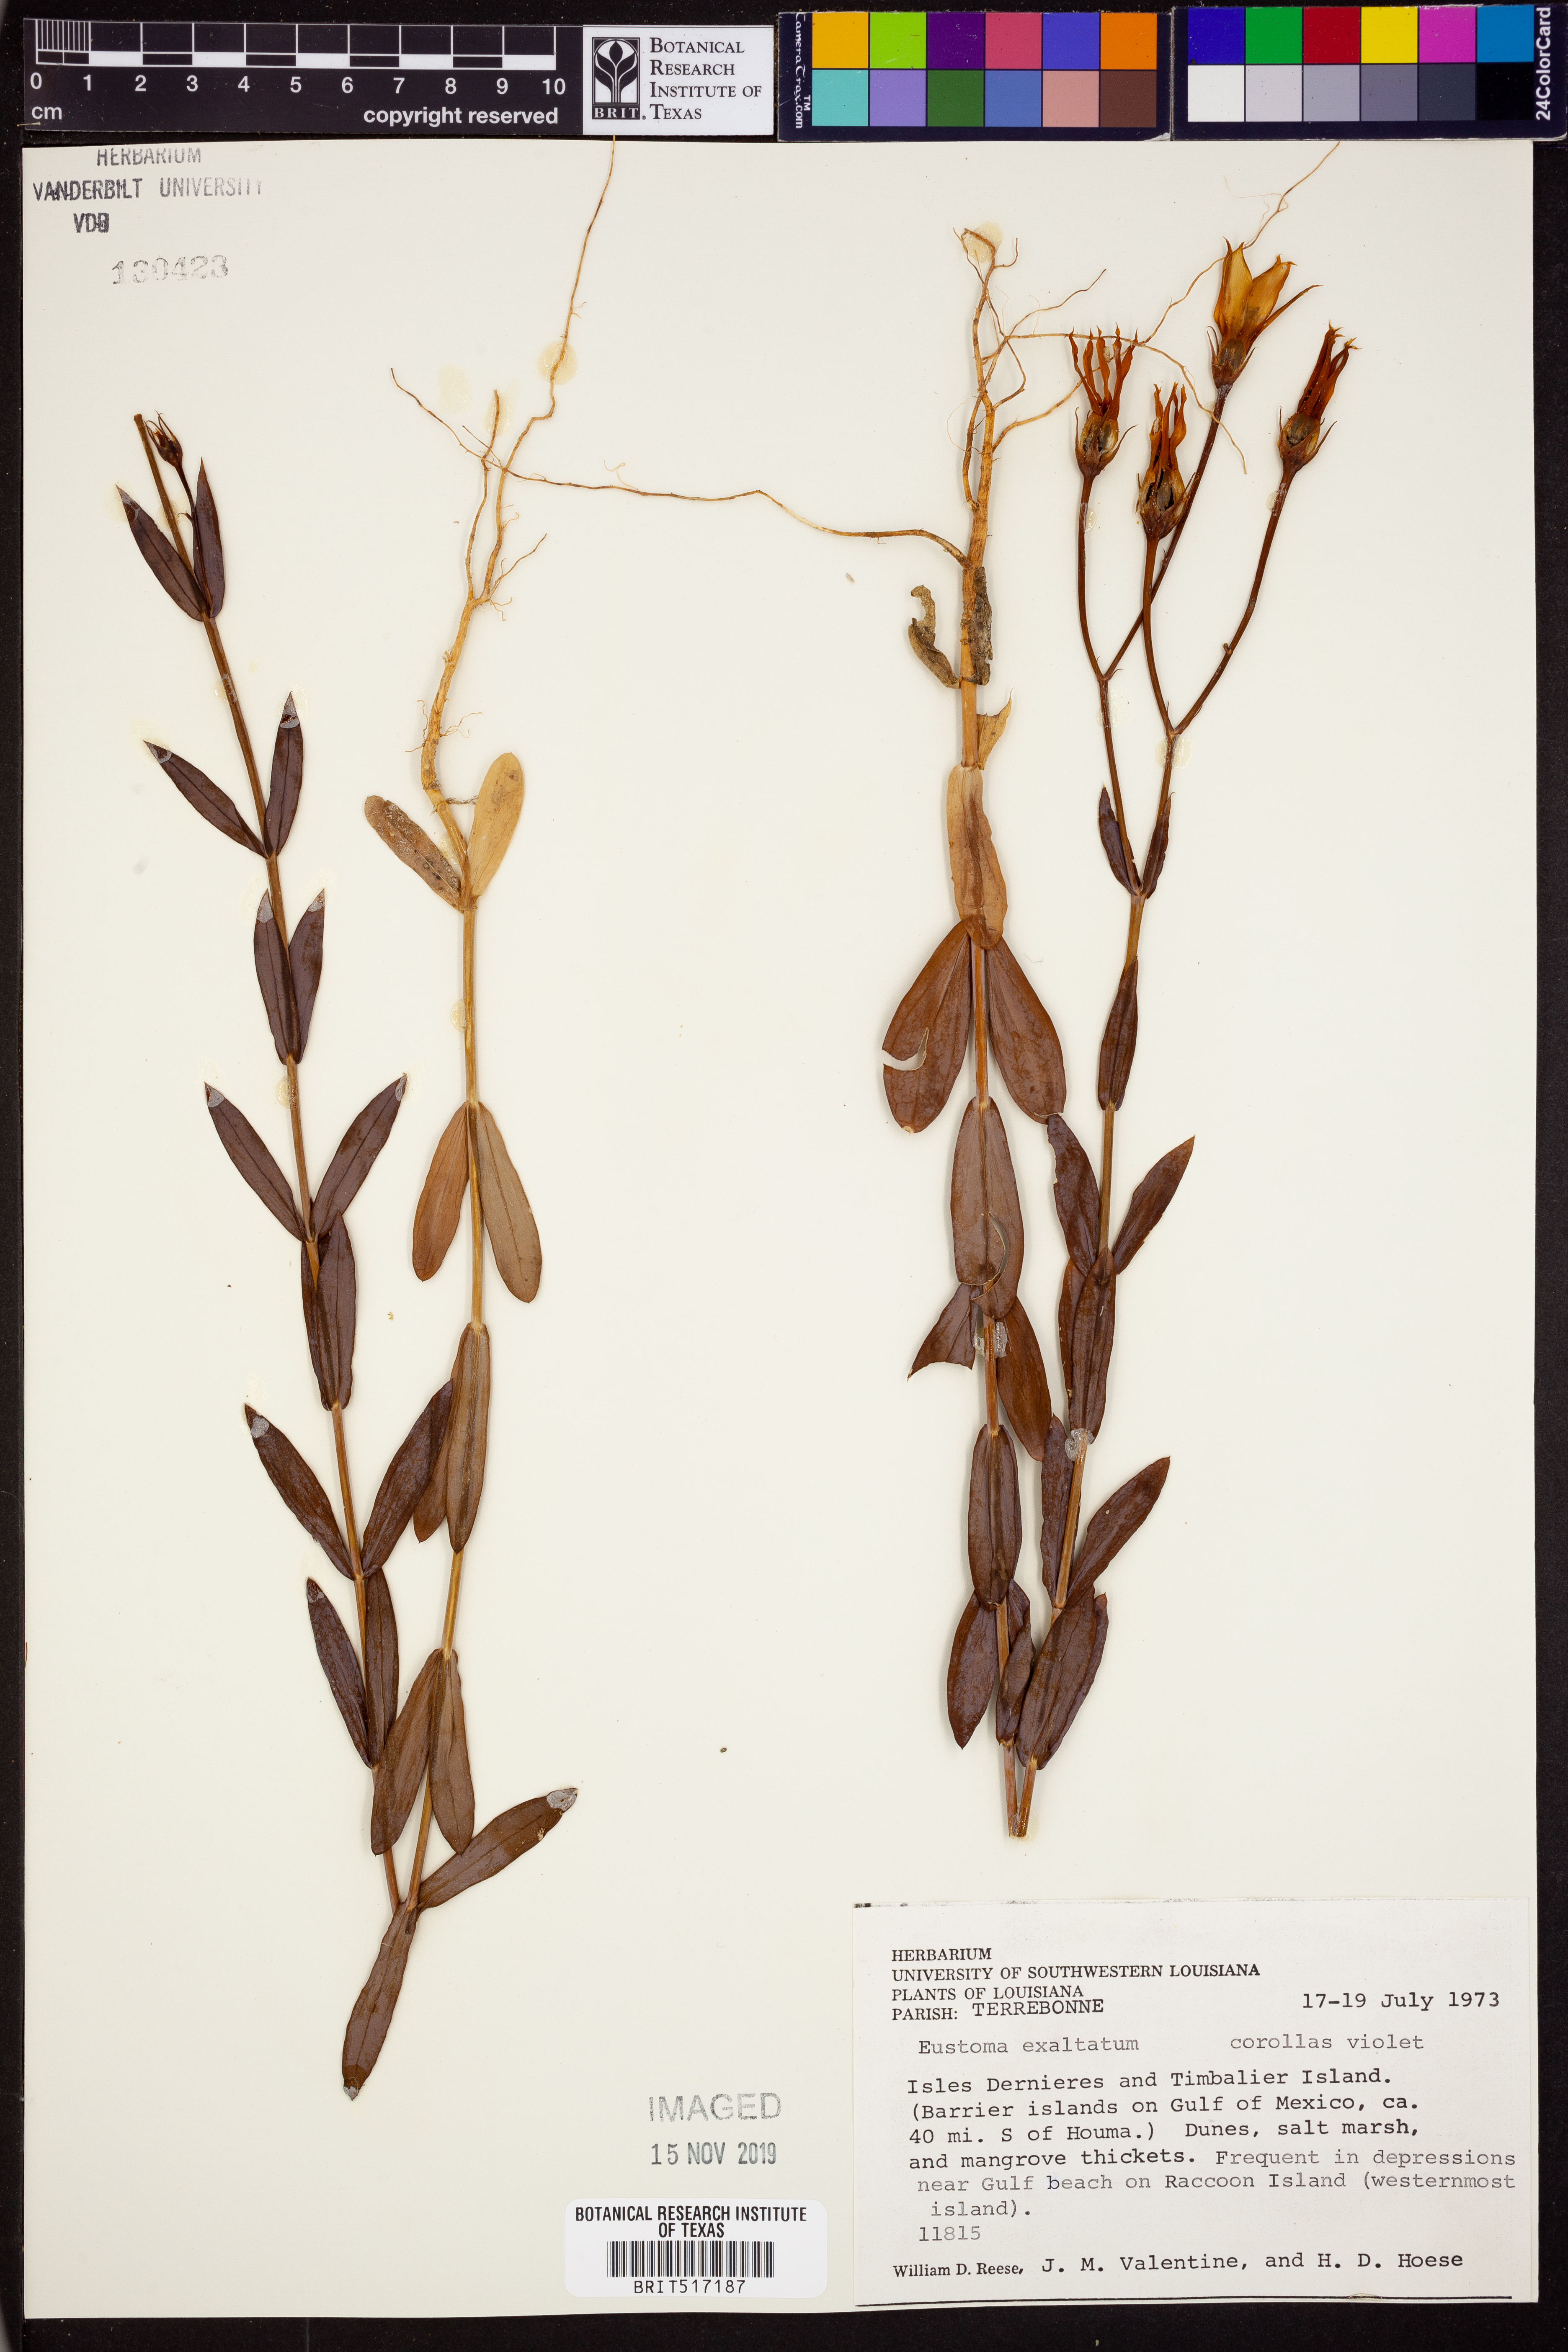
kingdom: Plantae
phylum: Tracheophyta
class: Magnoliopsida
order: Gentianales
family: Gentianaceae
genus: Eustoma
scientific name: Eustoma exaltatum
